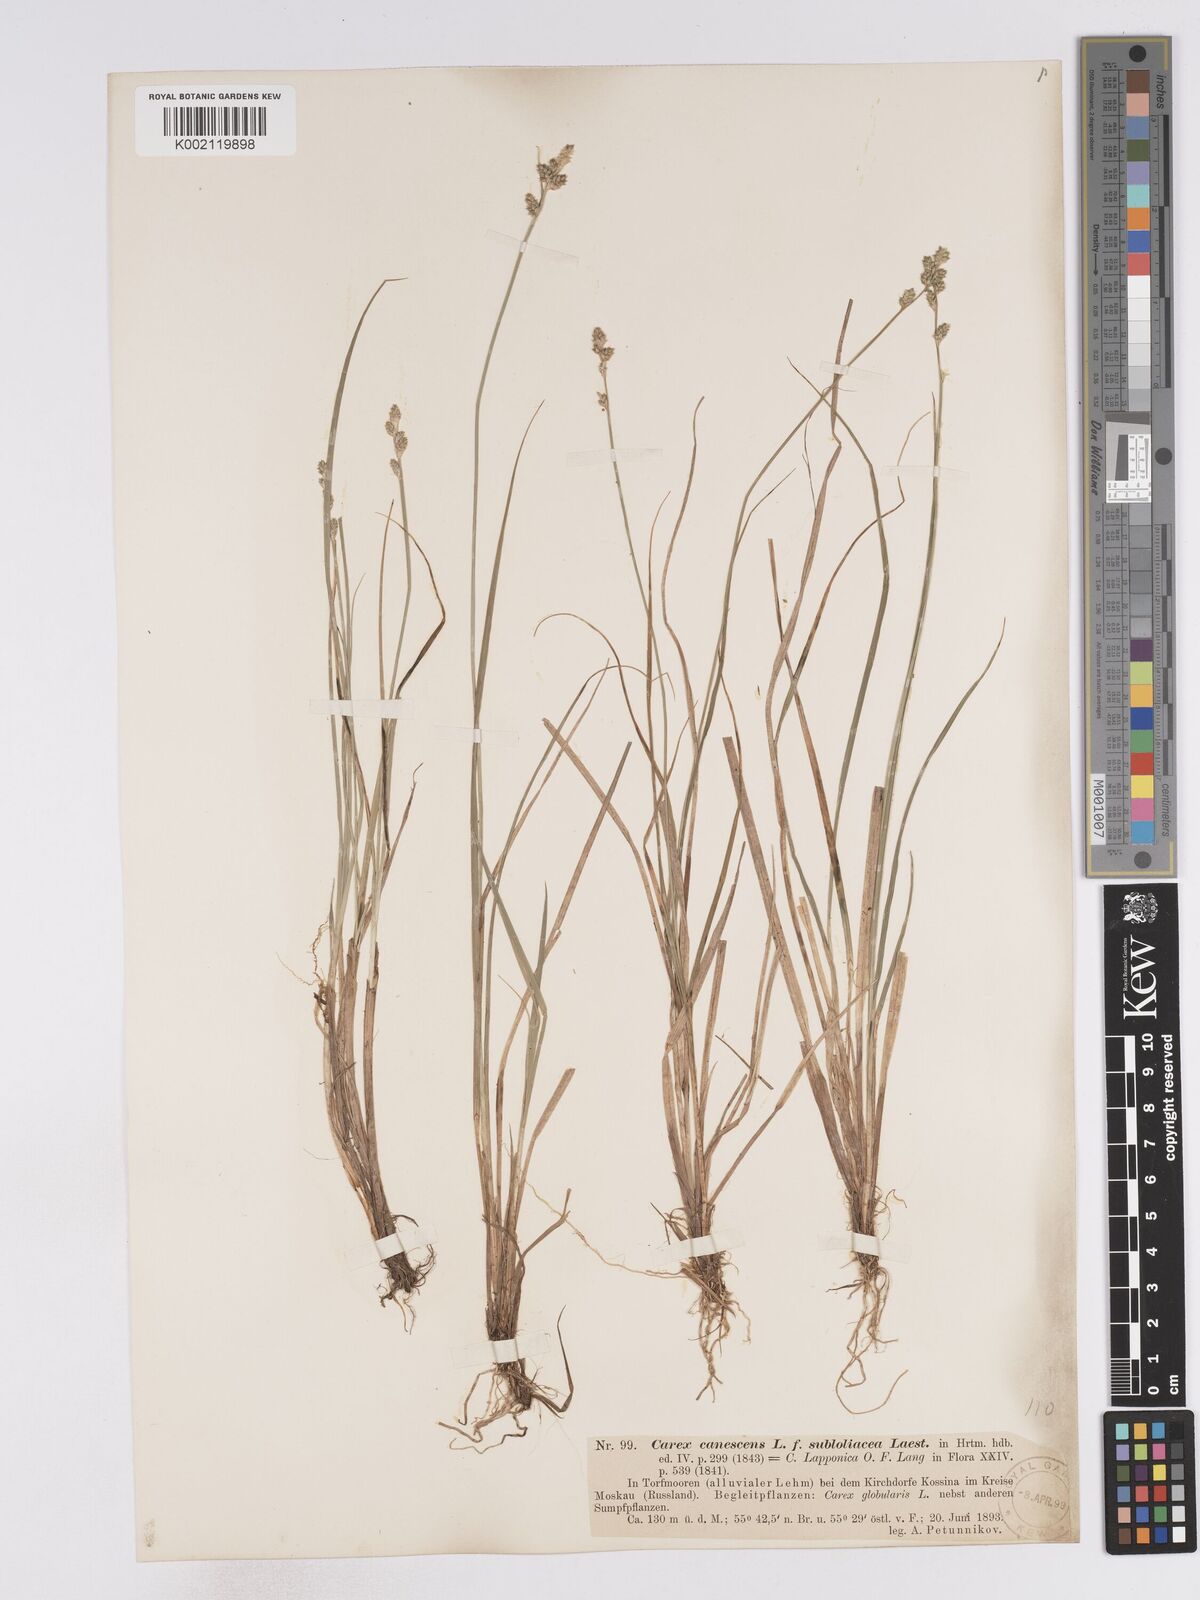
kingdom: Plantae
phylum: Tracheophyta
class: Liliopsida
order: Poales
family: Cyperaceae
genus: Carex
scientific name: Carex lapponica
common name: Lapland sedge
